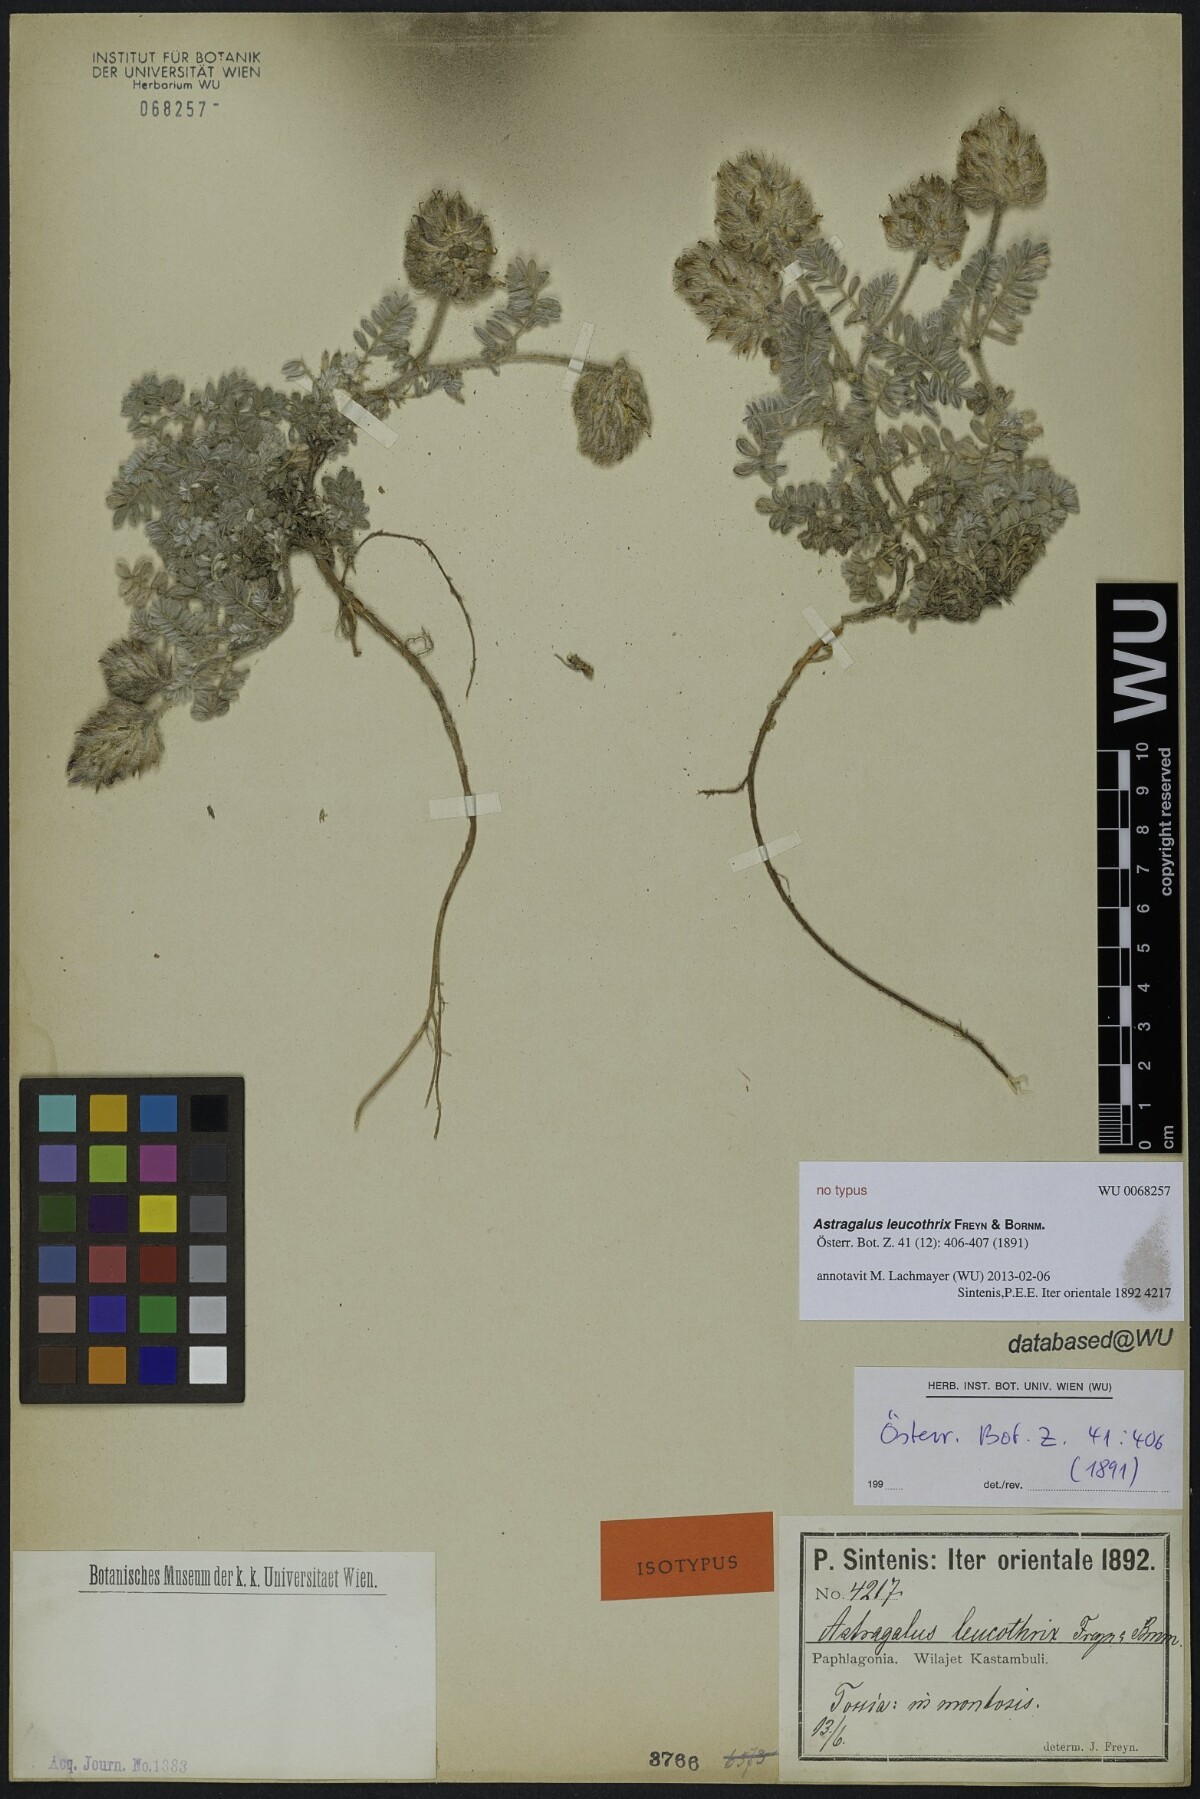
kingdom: Plantae
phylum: Tracheophyta
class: Magnoliopsida
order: Fabales
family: Fabaceae
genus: Astragalus
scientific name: Astragalus leucothrix
